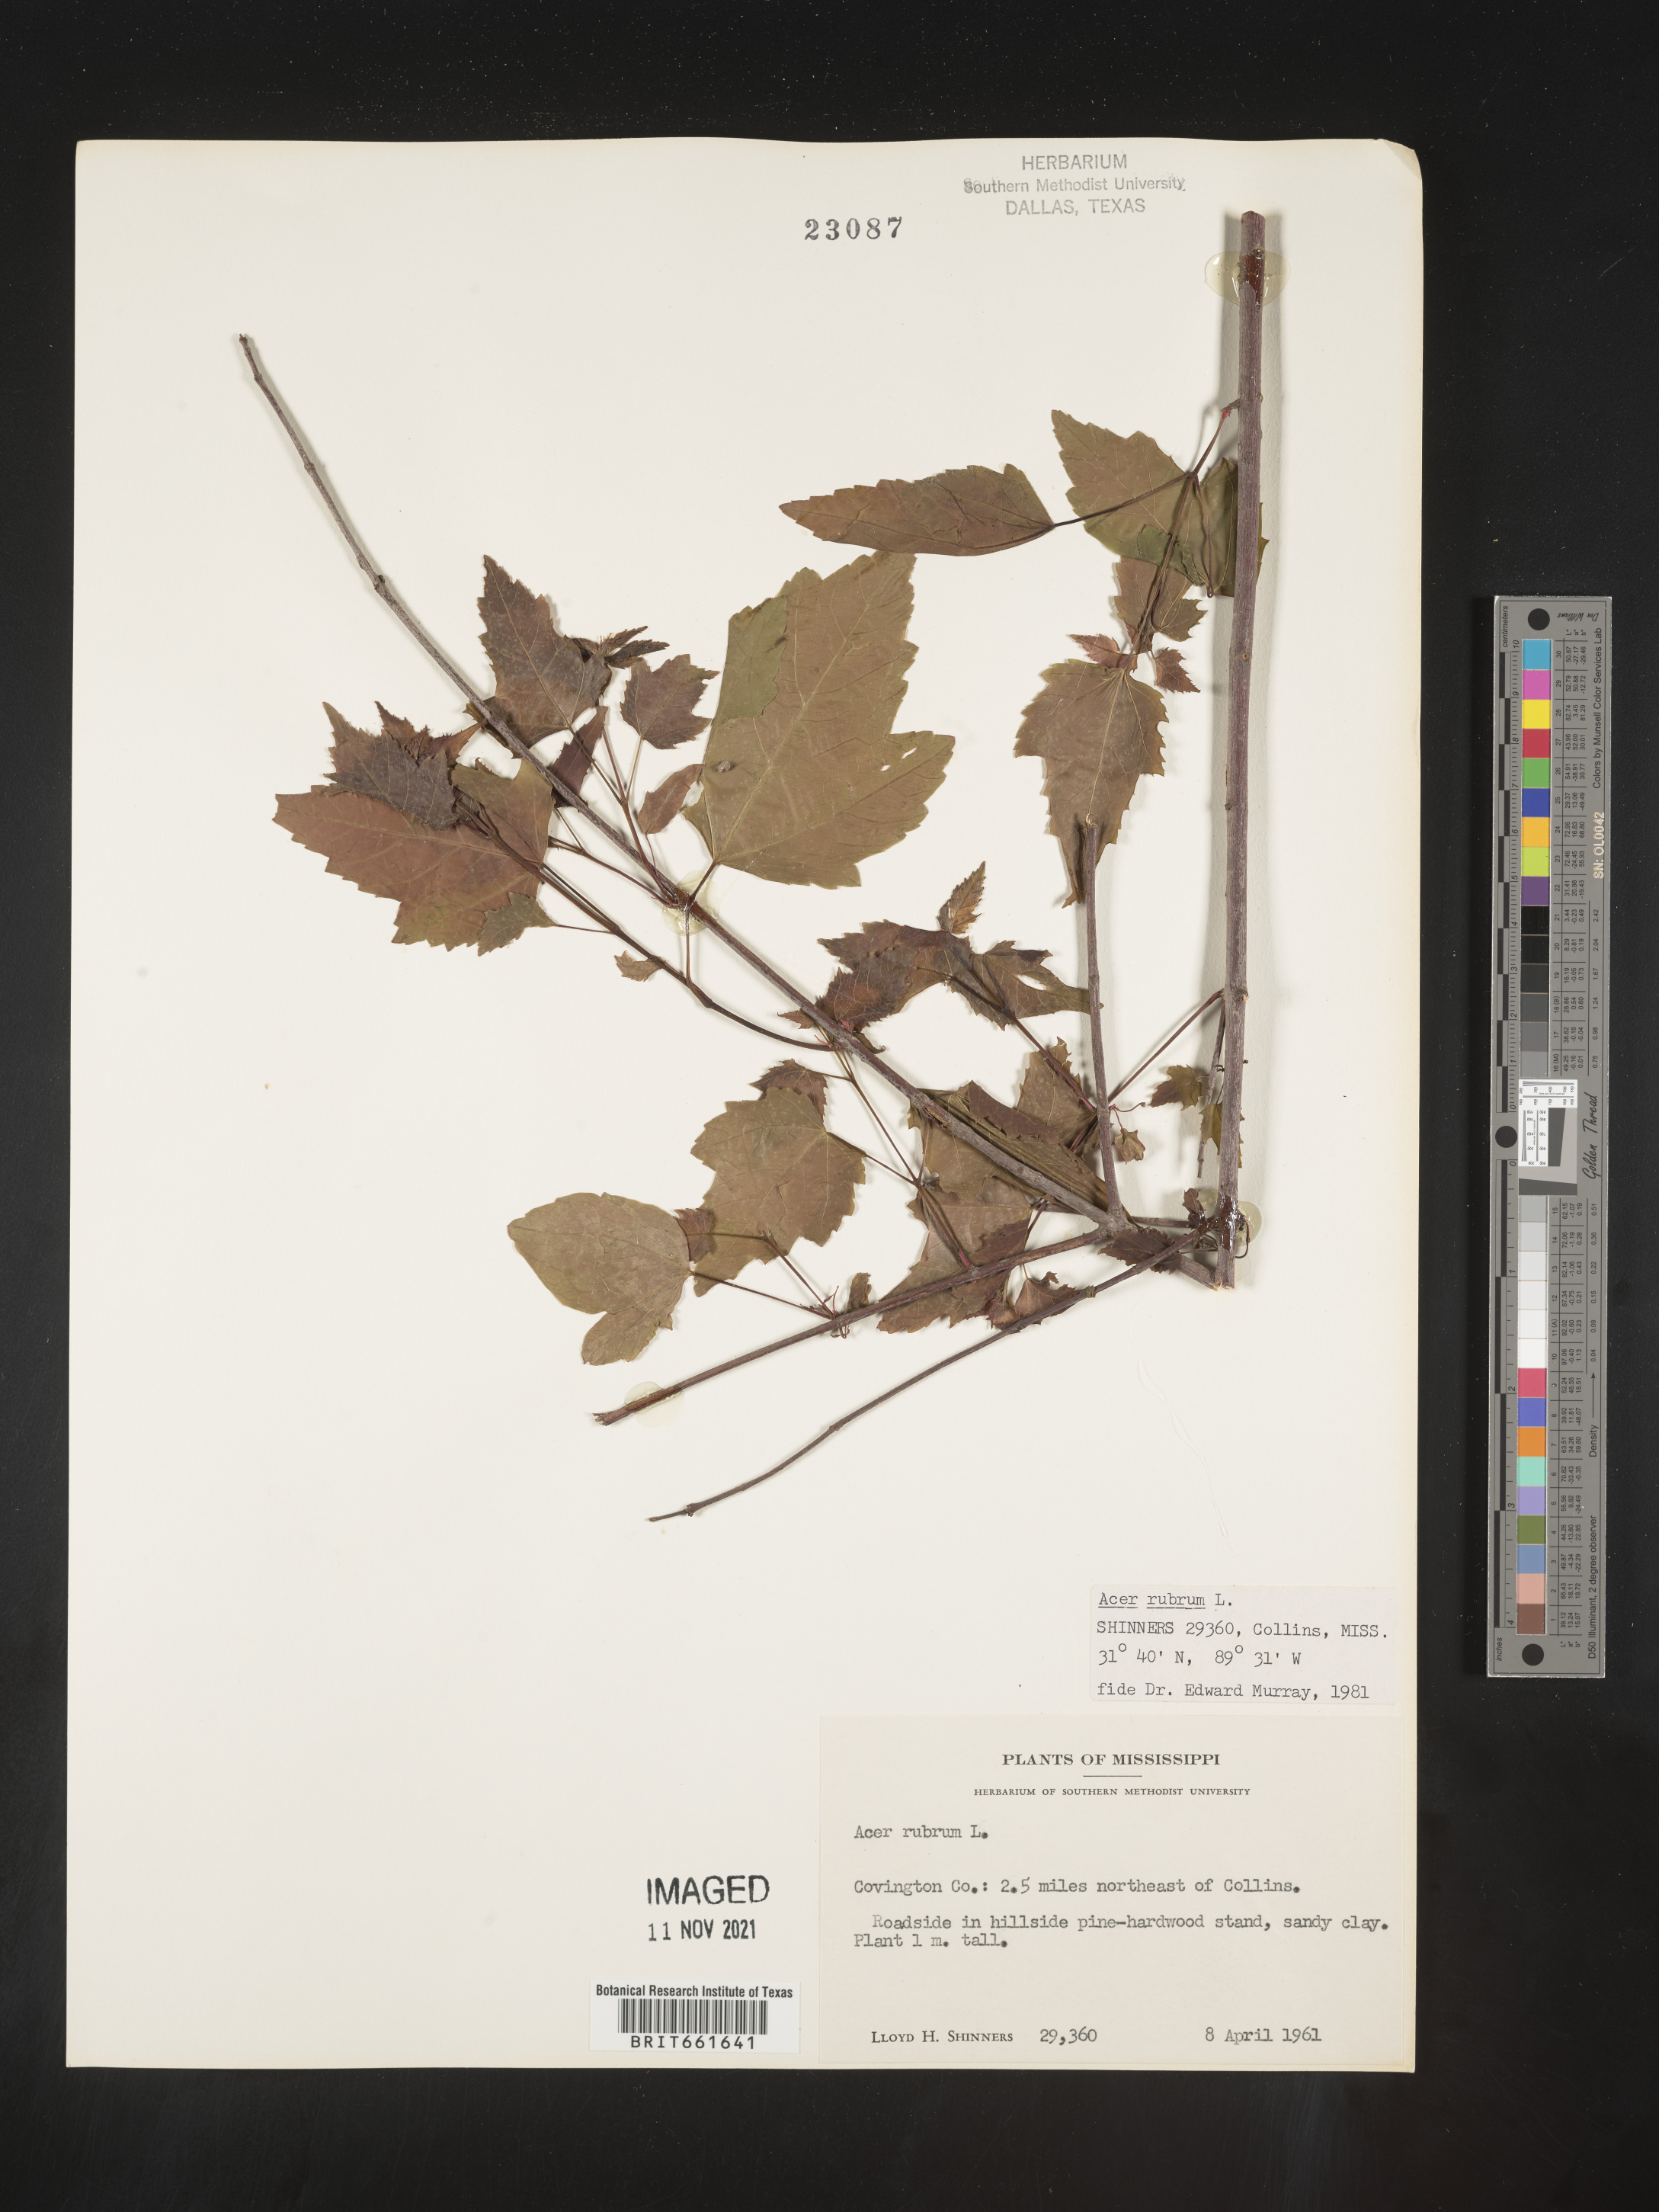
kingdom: Plantae
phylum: Tracheophyta
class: Magnoliopsida
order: Sapindales
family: Sapindaceae
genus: Acer
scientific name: Acer rubrum
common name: Red maple
